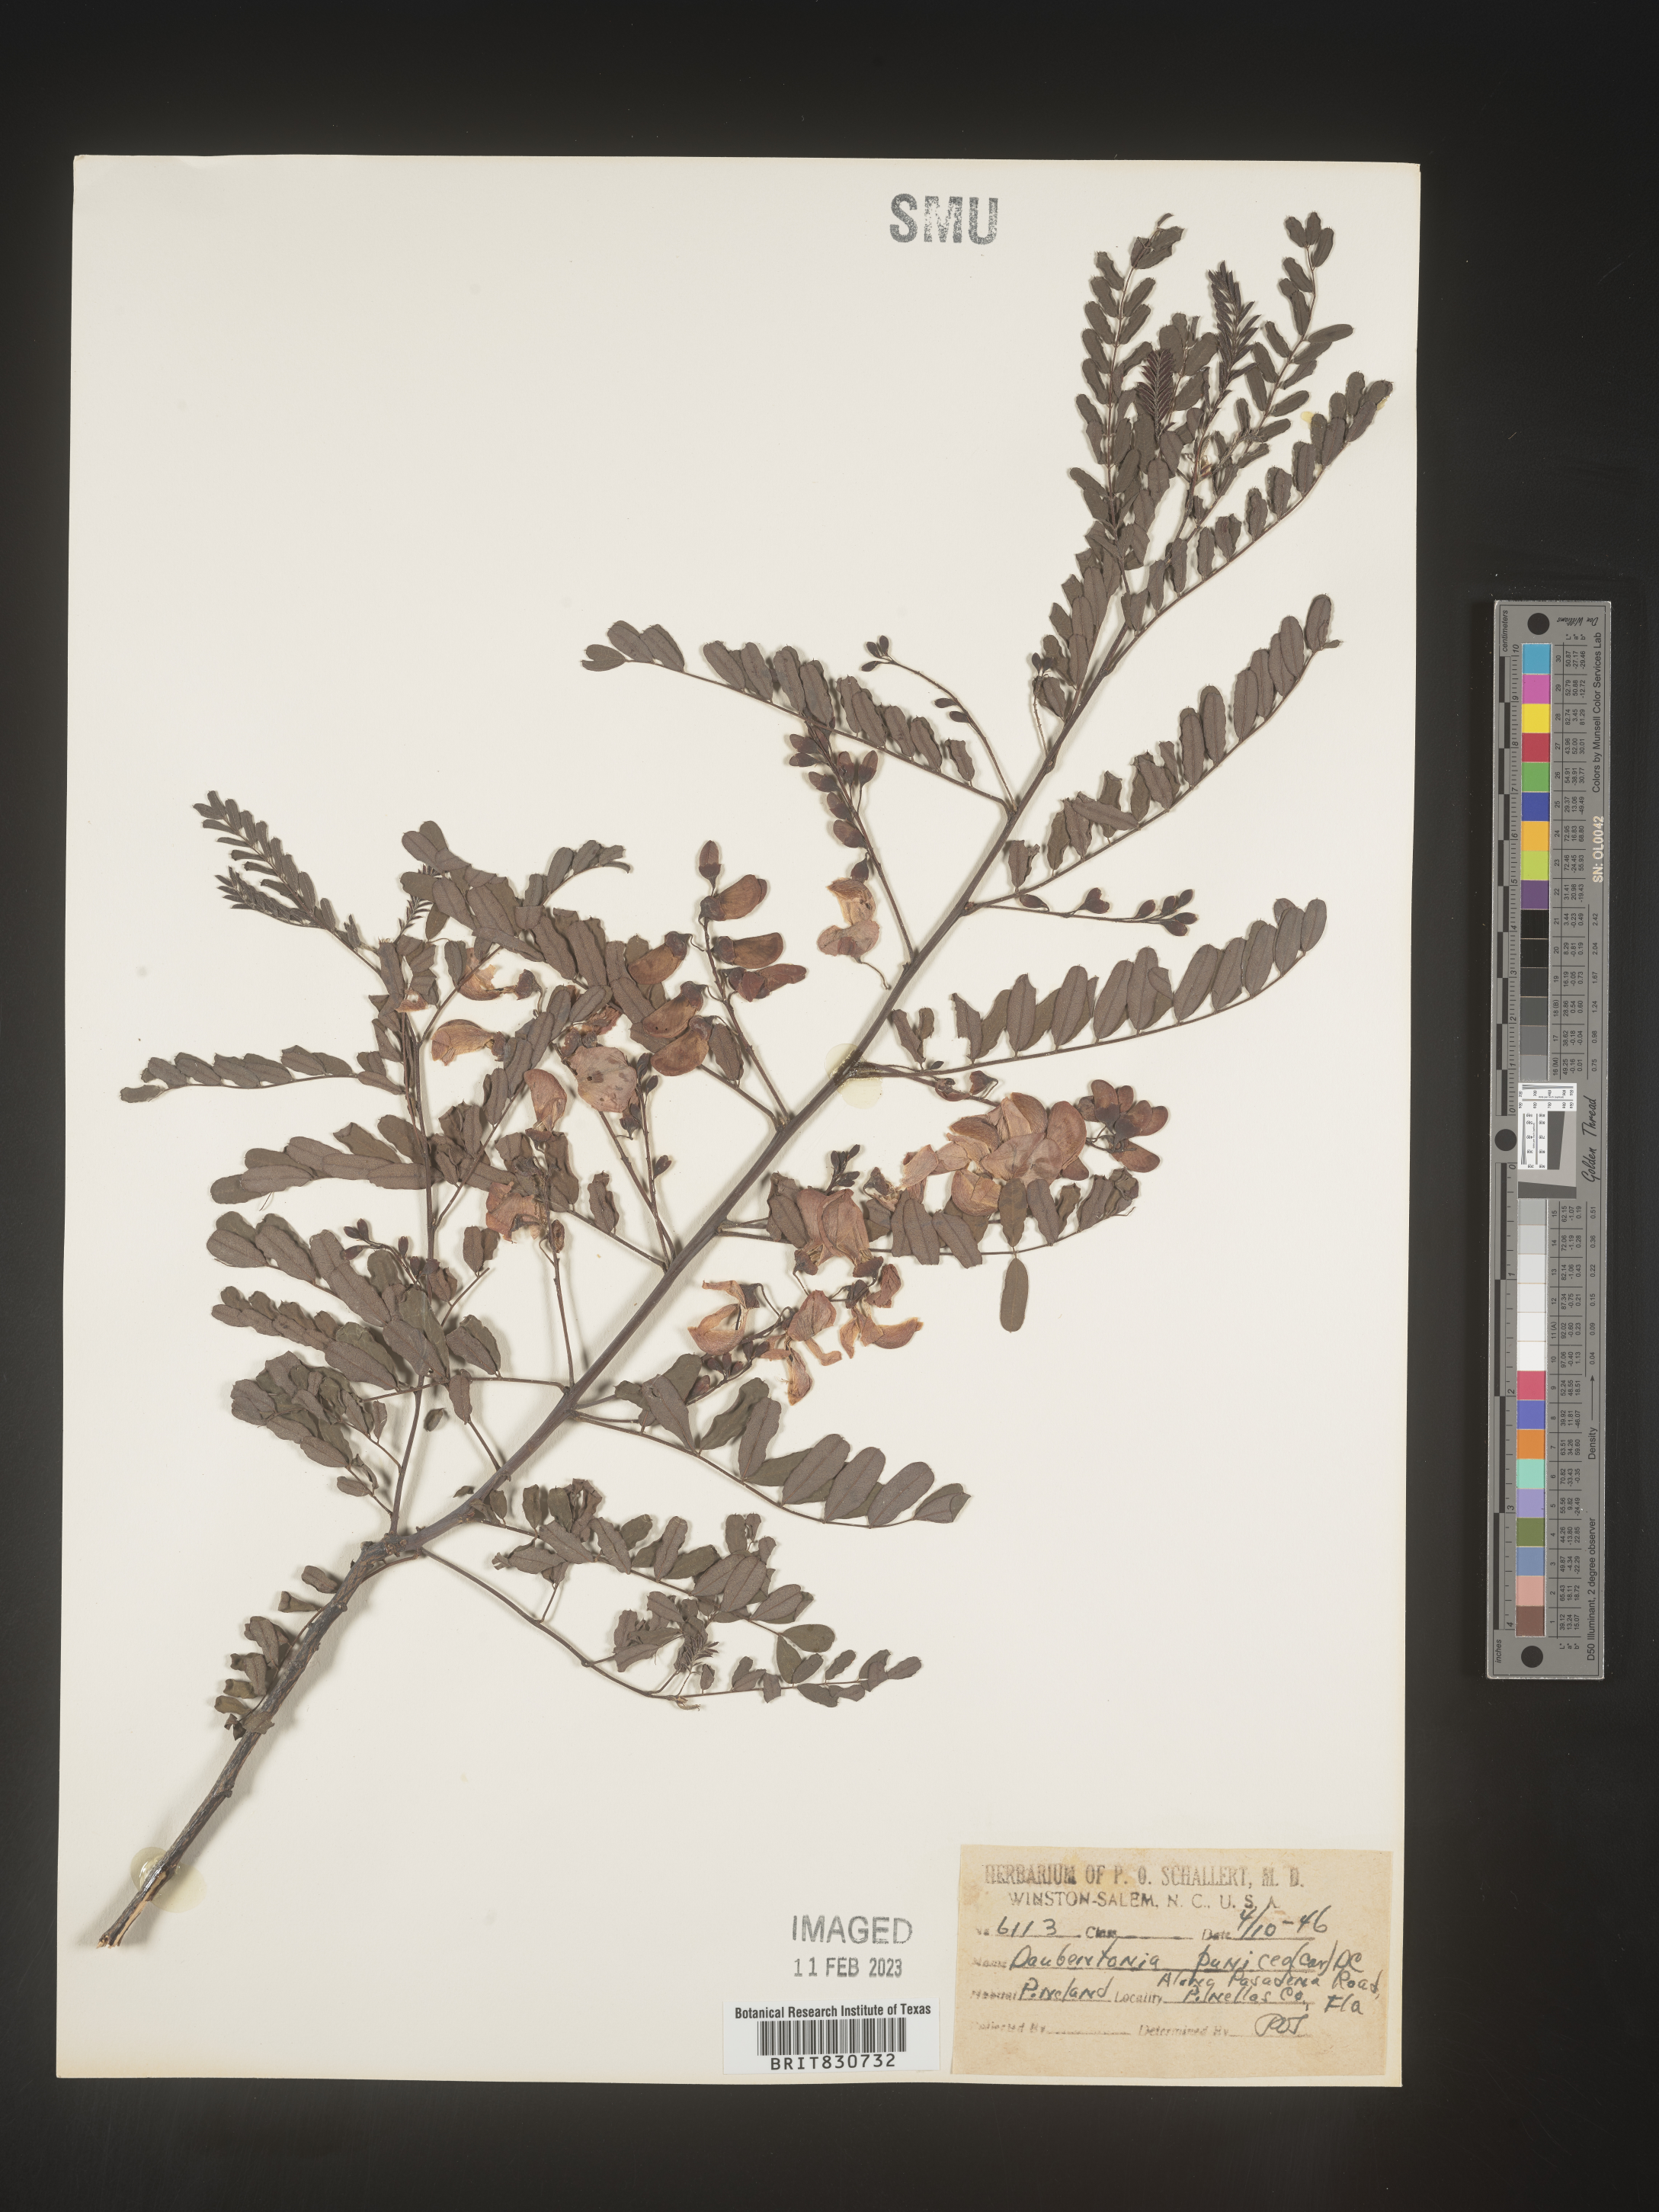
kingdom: Plantae
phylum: Tracheophyta
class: Magnoliopsida
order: Fabales
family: Fabaceae
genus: Sesbania
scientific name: Sesbania punicea
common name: Rattlebox
